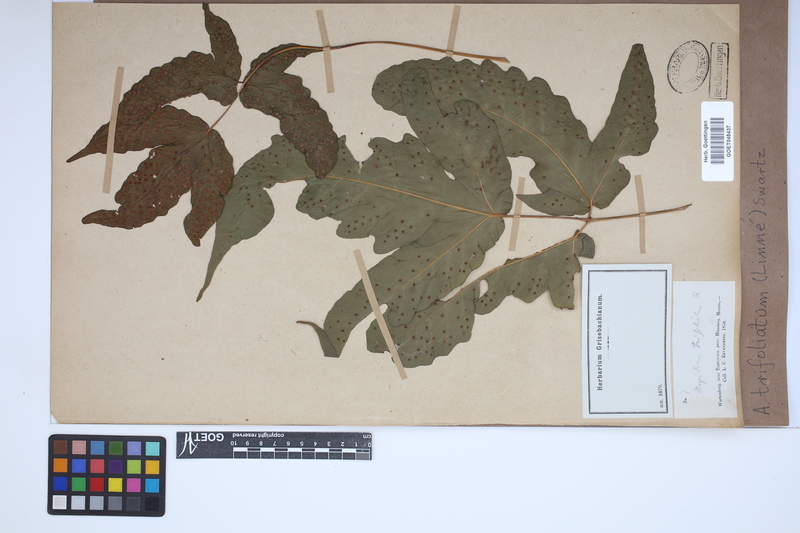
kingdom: Plantae
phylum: Tracheophyta
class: Polypodiopsida
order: Polypodiales
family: Tectariaceae
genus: Tectaria
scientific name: Tectaria trifoliata
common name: Threeleaf halberd fern
